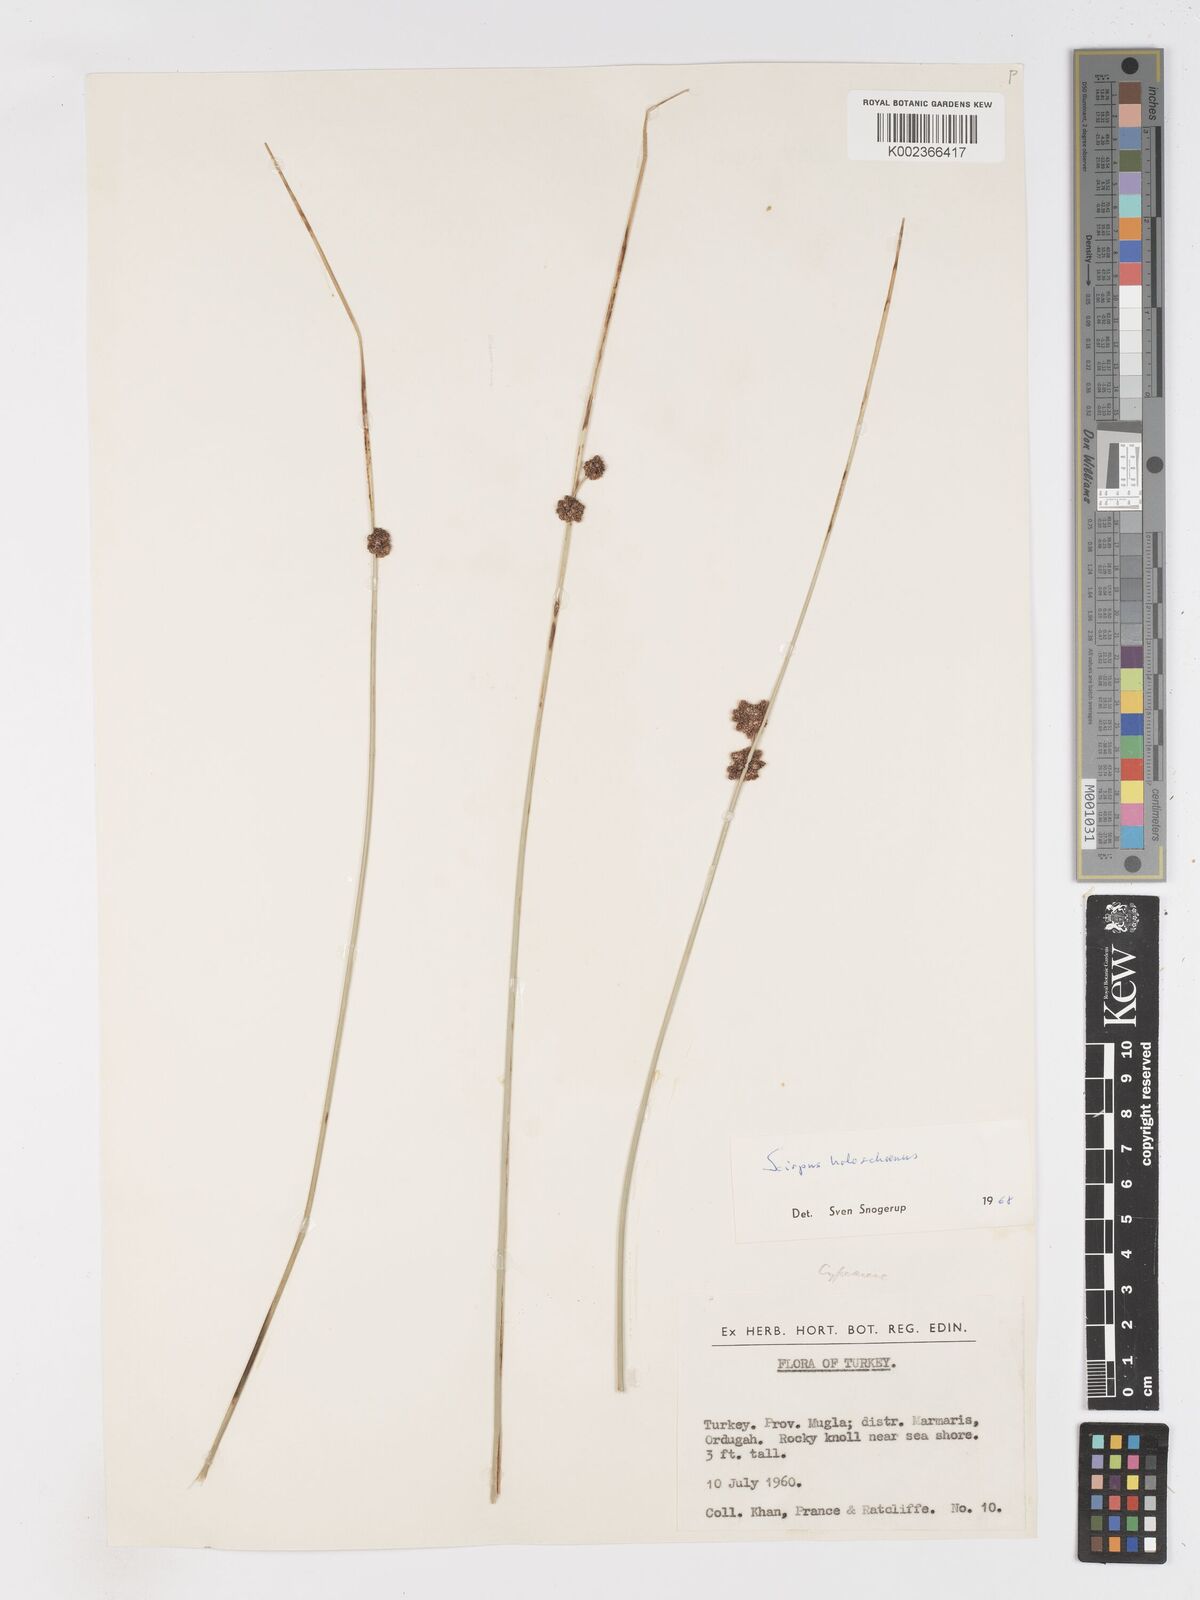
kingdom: Plantae
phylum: Tracheophyta
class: Liliopsida
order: Poales
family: Cyperaceae
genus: Scirpoides
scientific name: Scirpoides holoschoenus
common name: Round-headed club-rush
